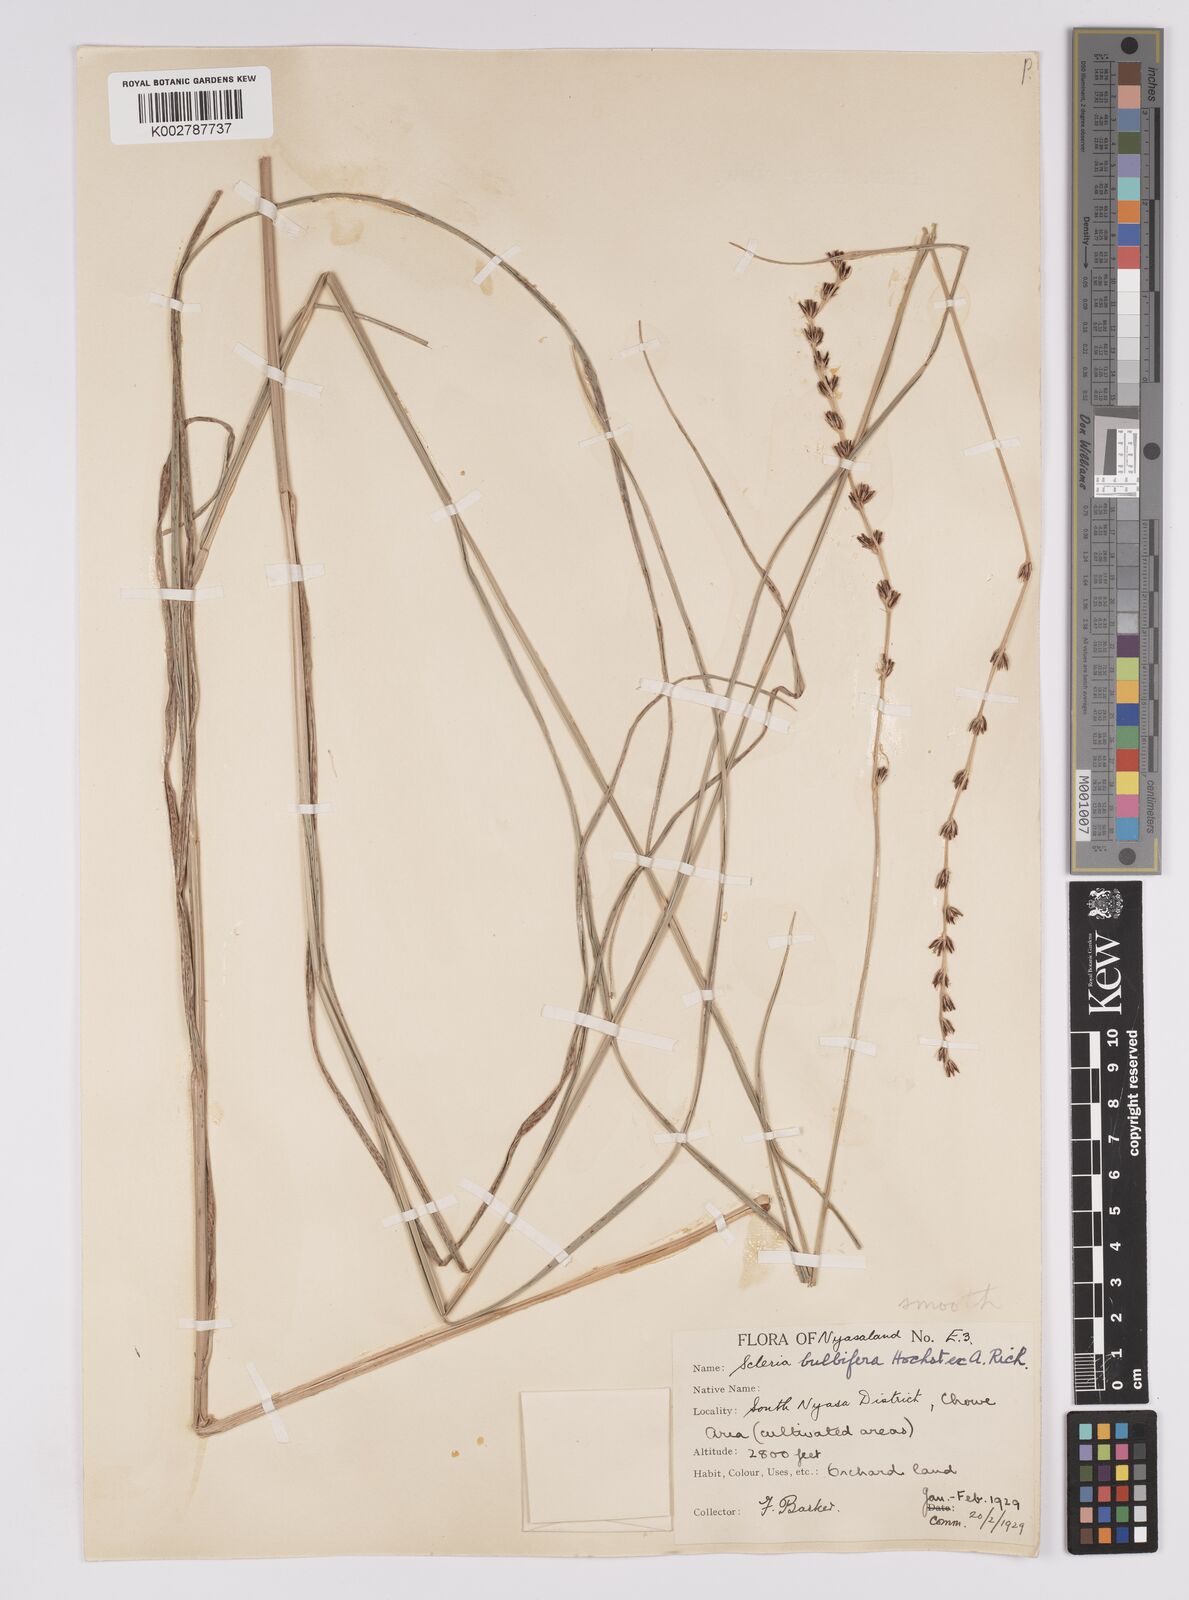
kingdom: Plantae
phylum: Tracheophyta
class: Liliopsida
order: Poales
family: Cyperaceae
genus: Scleria
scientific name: Scleria bulbifera
